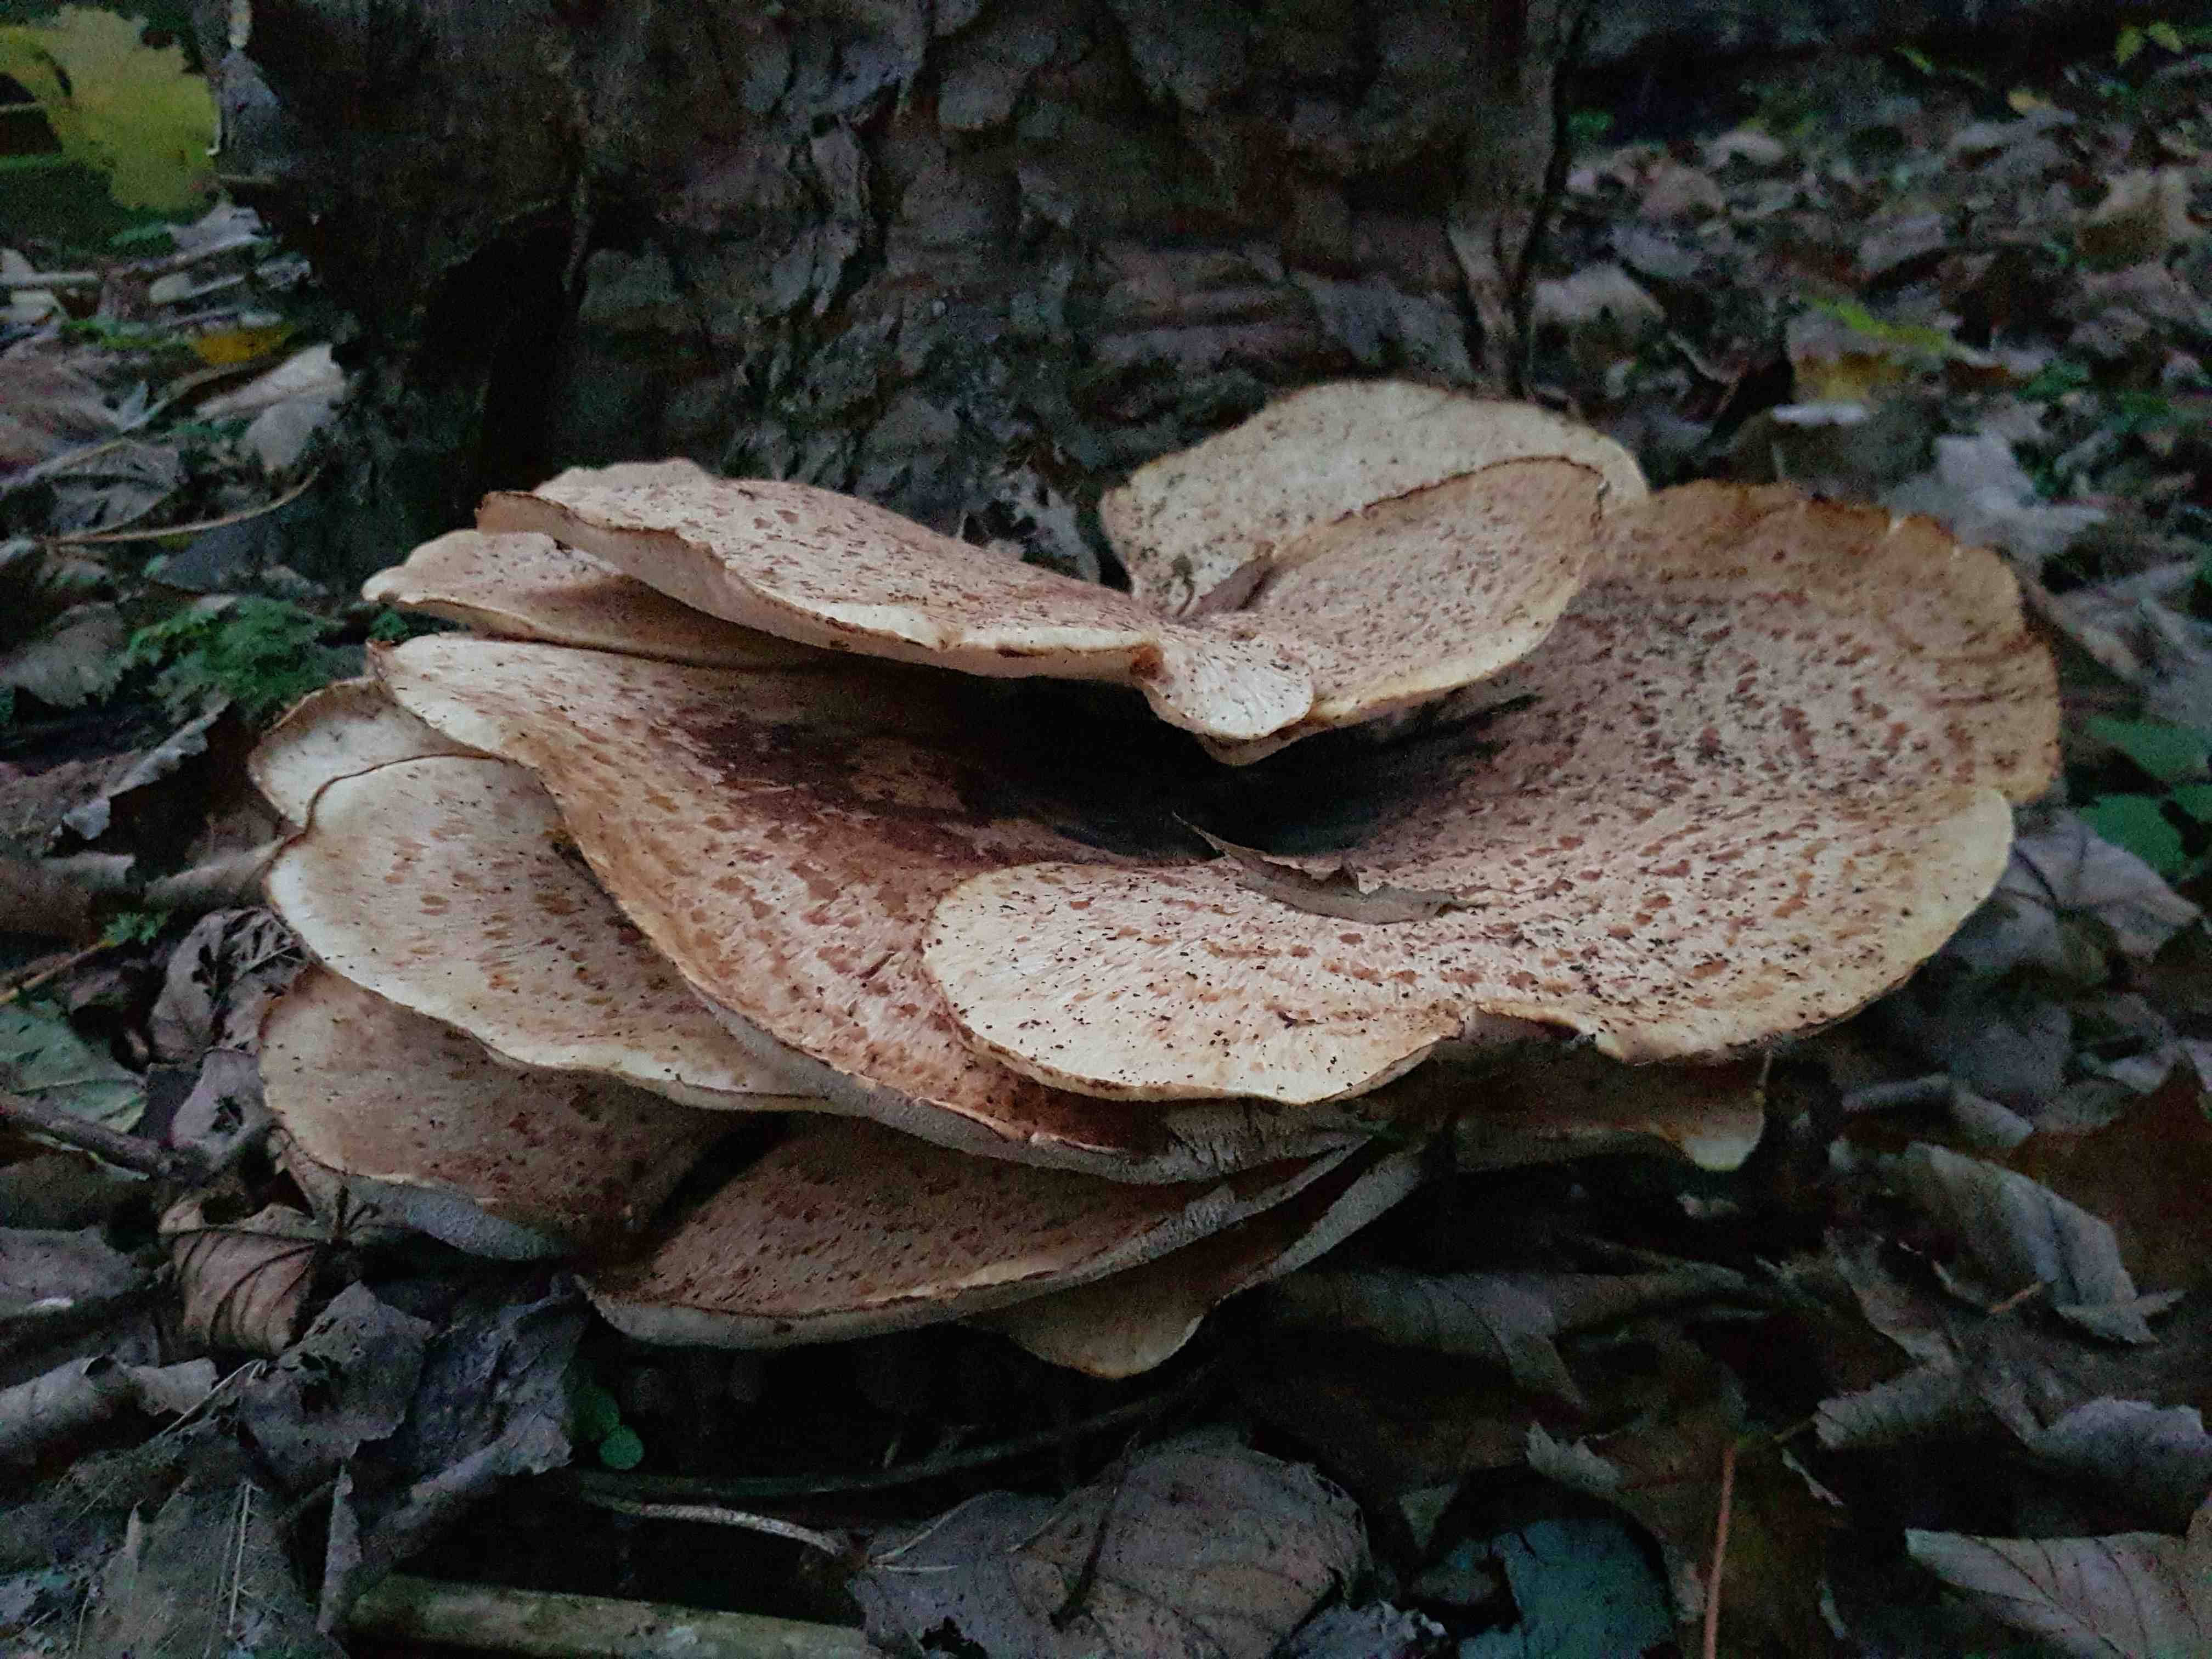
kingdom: Fungi
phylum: Basidiomycota
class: Agaricomycetes
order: Polyporales
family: Polyporaceae
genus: Cerioporus
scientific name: Cerioporus squamosus
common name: skællet stilkporesvamp
